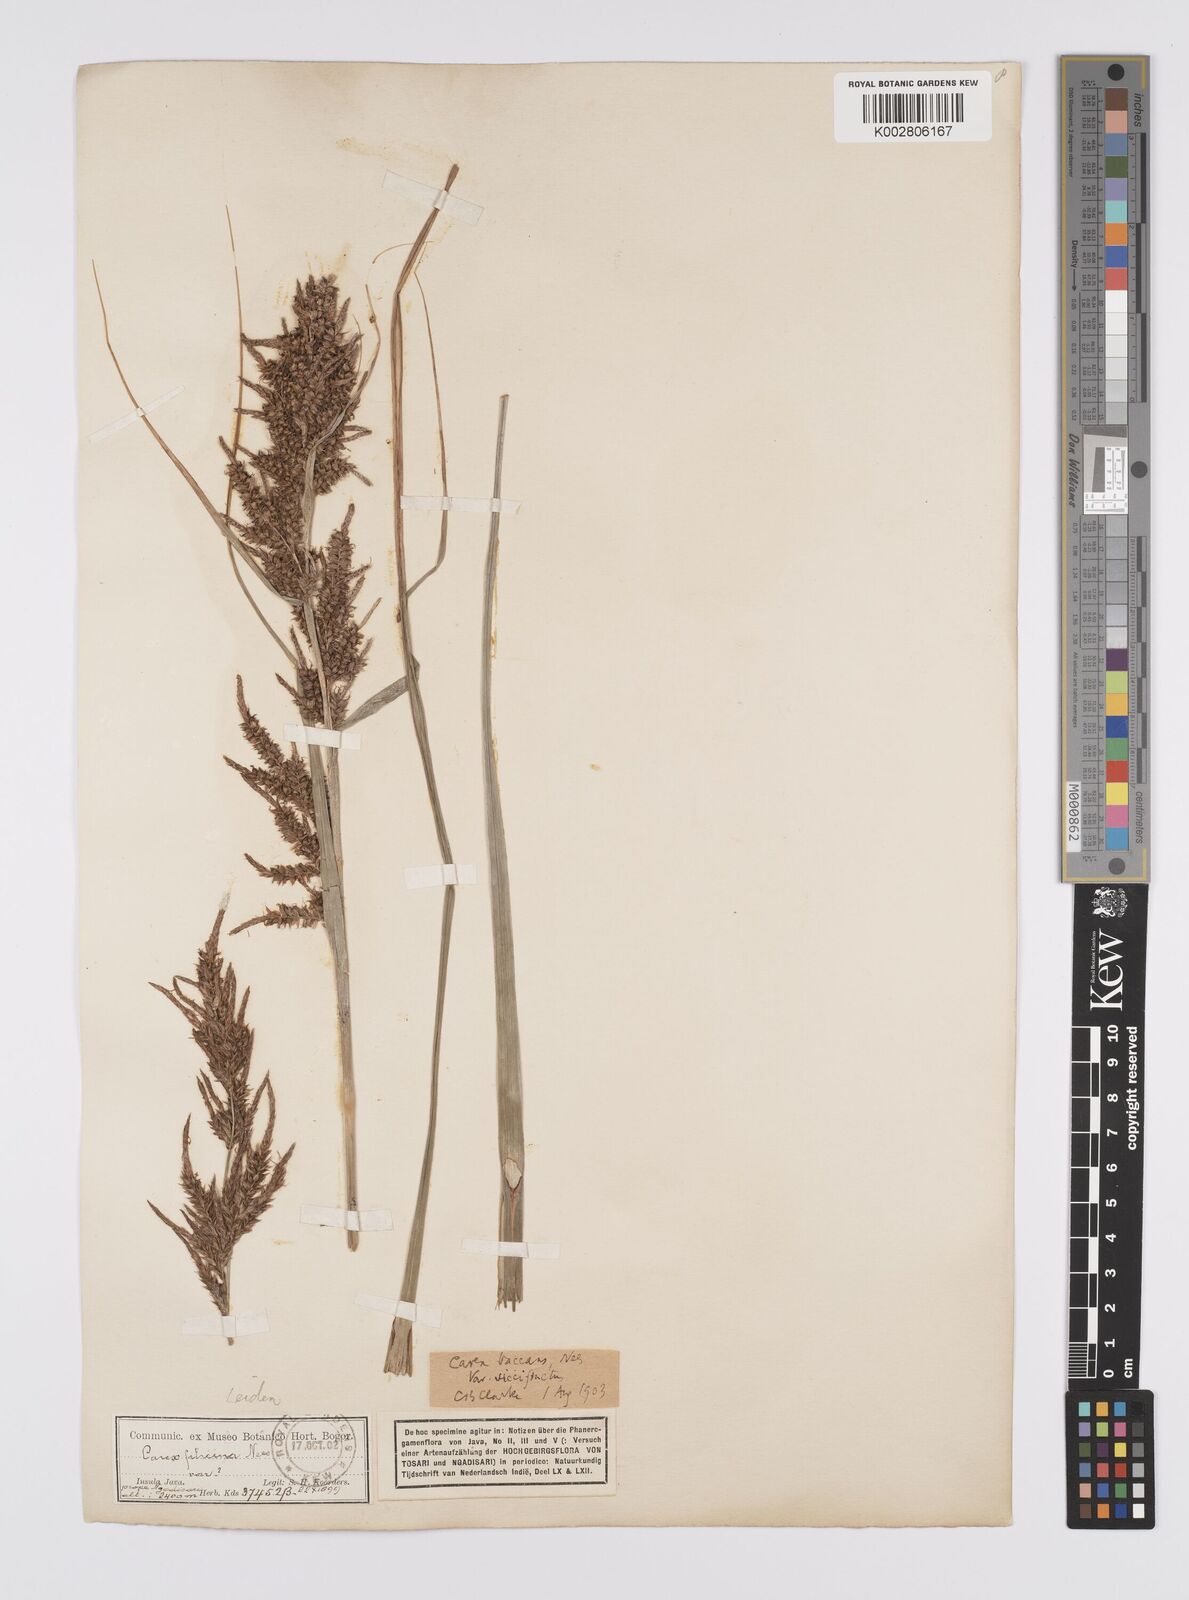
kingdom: Plantae
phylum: Tracheophyta
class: Liliopsida
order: Poales
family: Cyperaceae
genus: Carex
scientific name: Carex baccans
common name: Crimson seeded sedge
